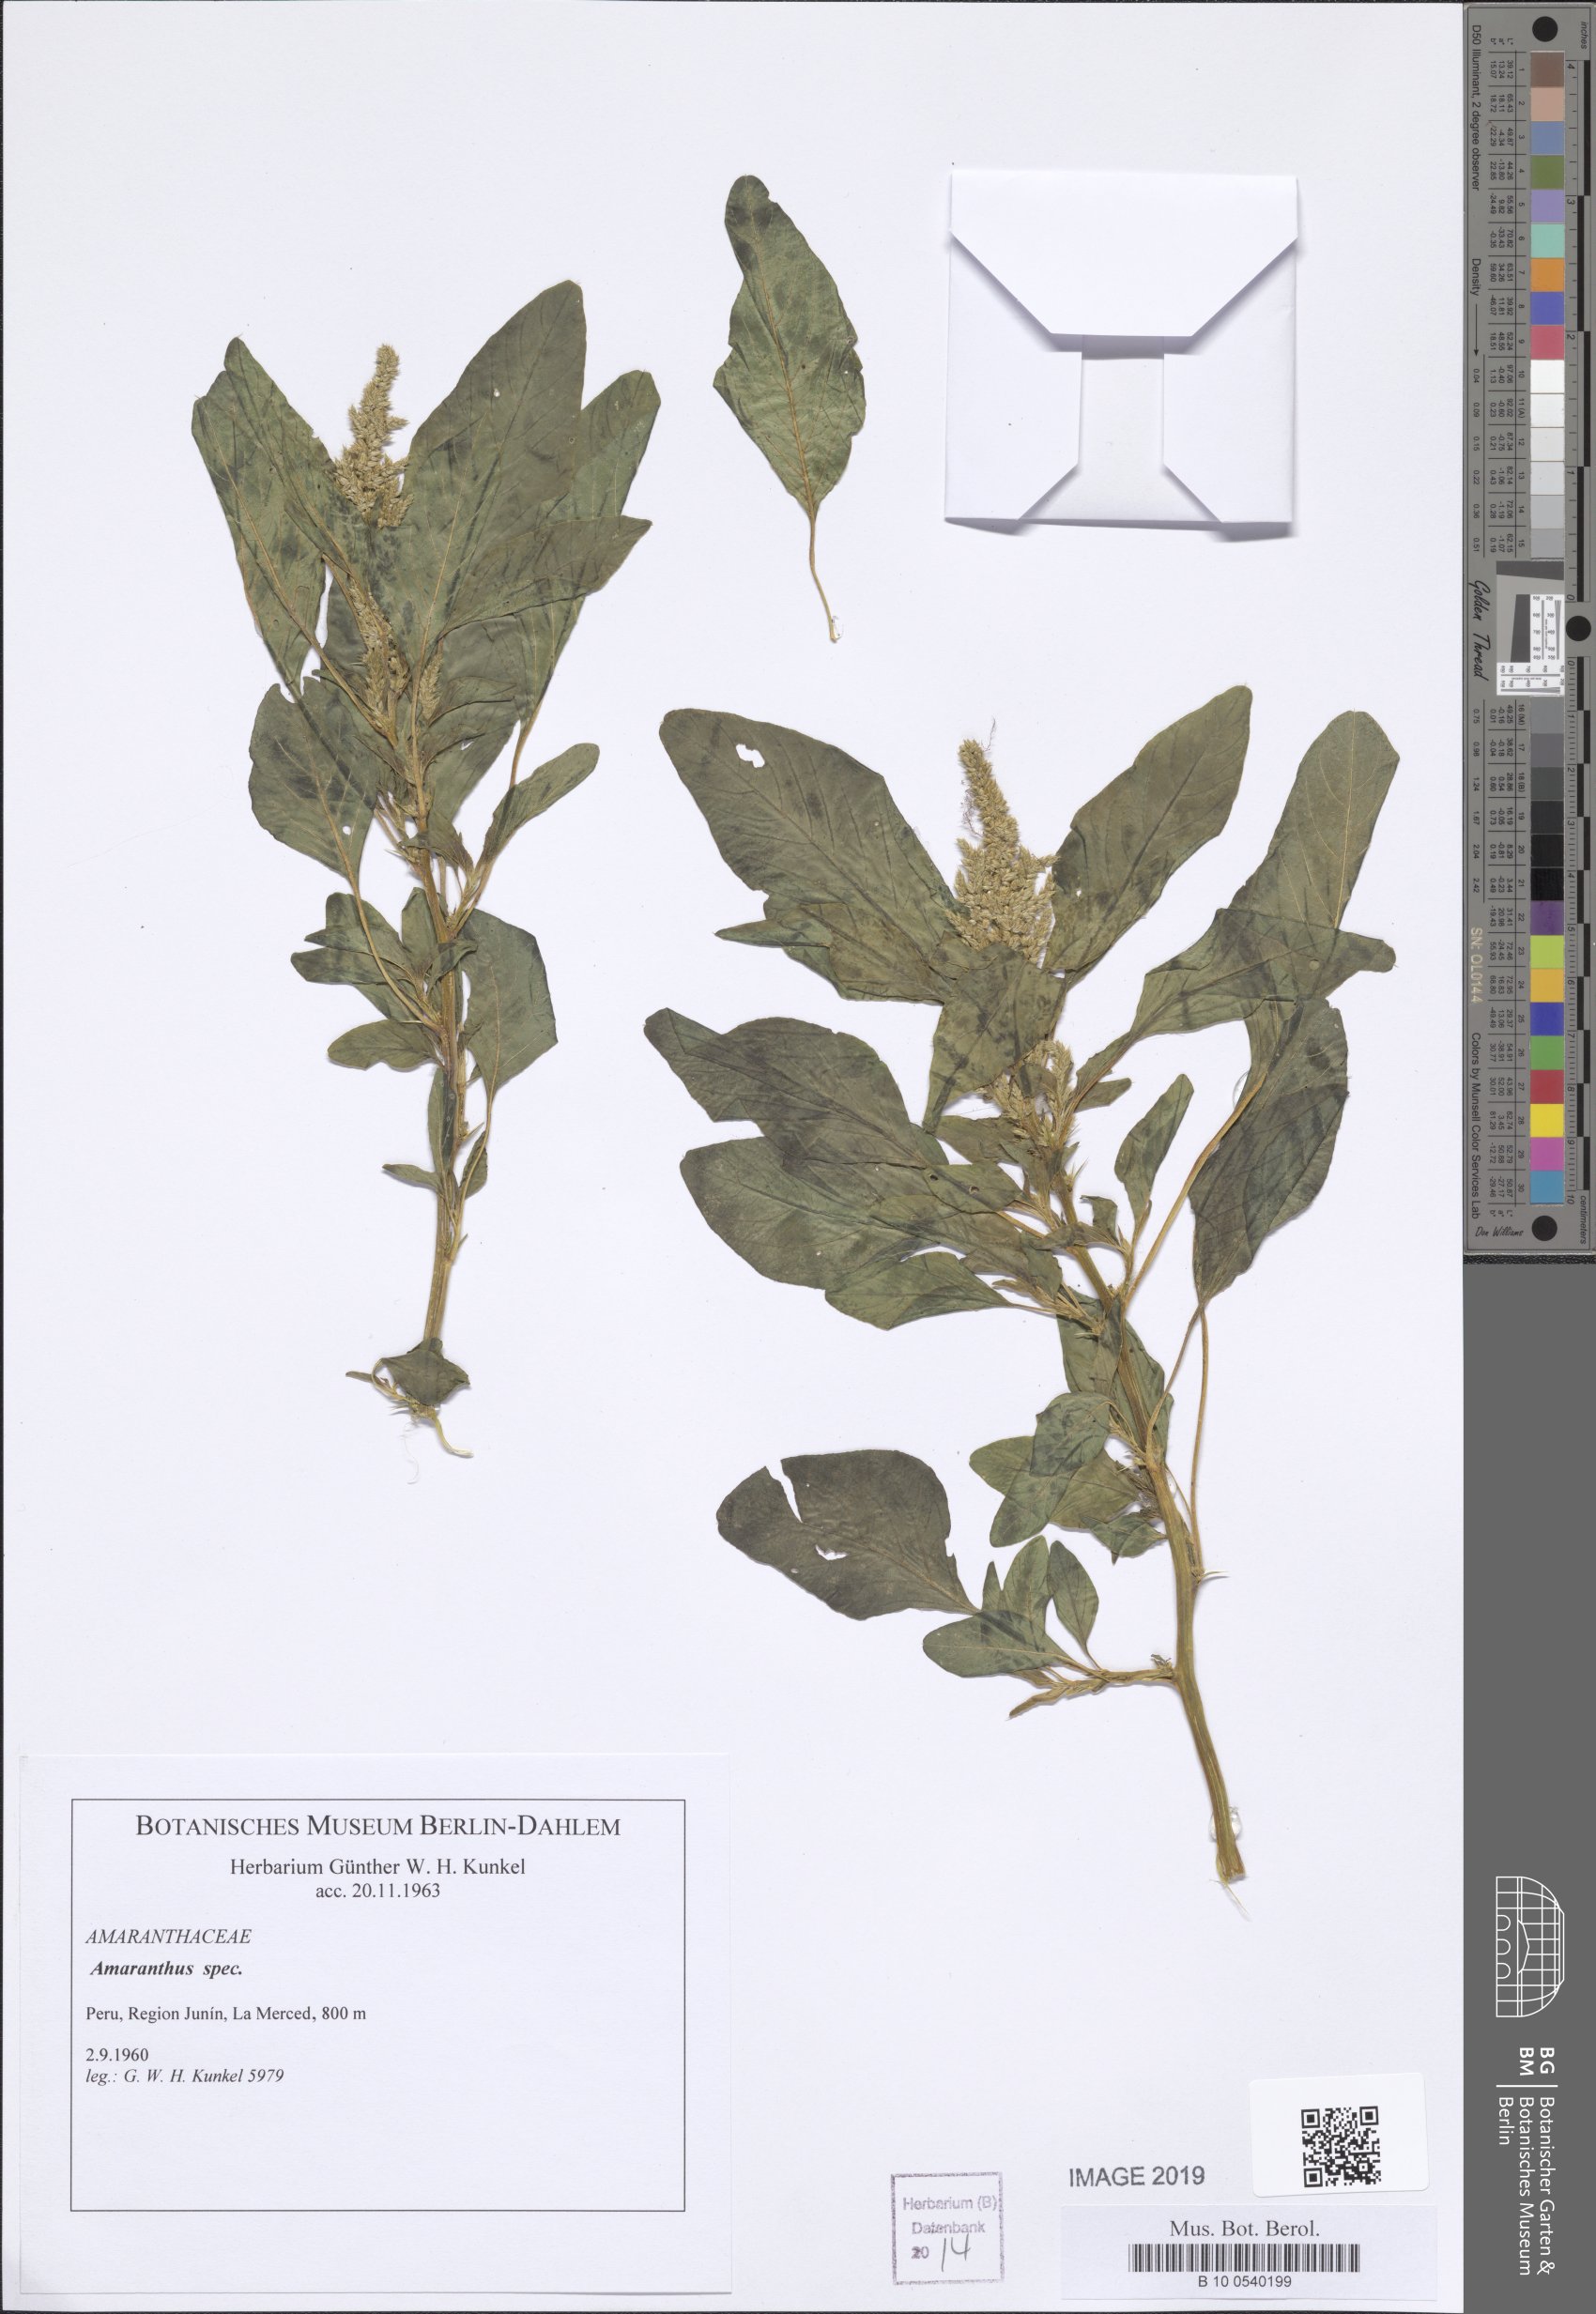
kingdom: Plantae
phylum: Tracheophyta
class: Magnoliopsida
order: Caryophyllales
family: Amaranthaceae
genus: Amaranthus
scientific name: Amaranthus
